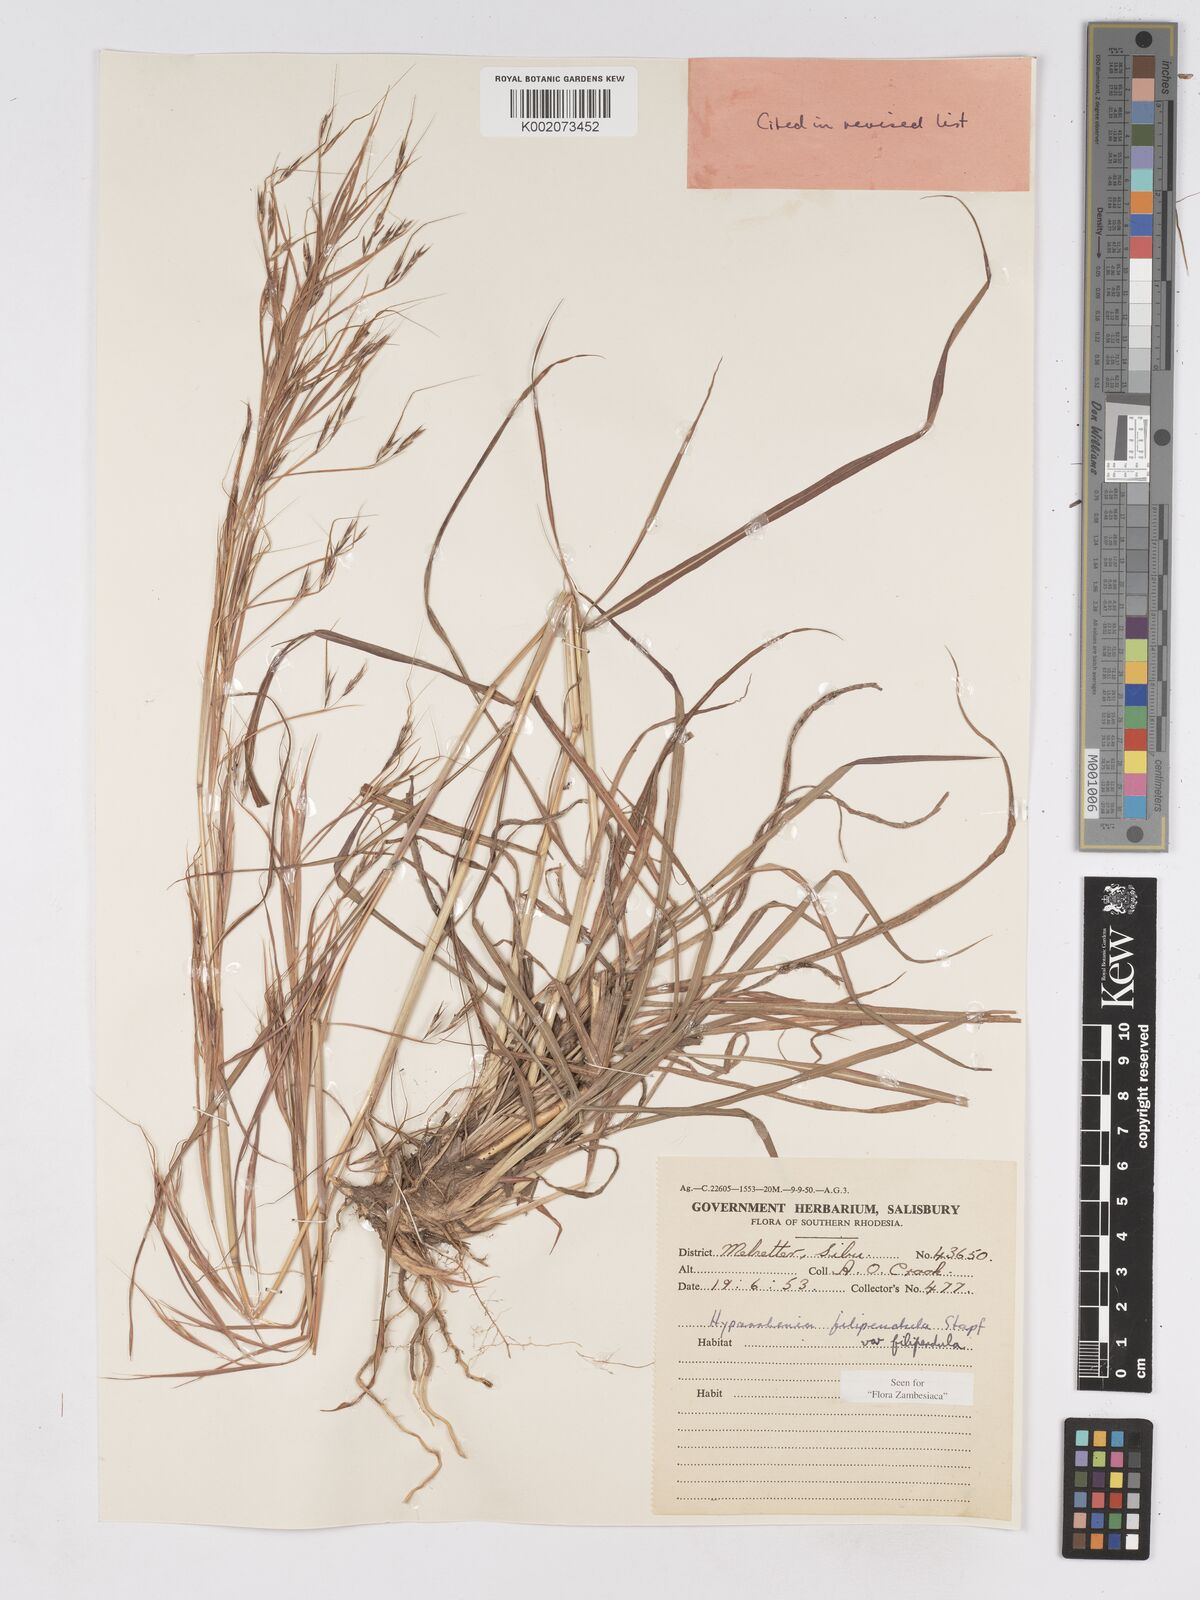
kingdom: Plantae
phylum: Tracheophyta
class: Liliopsida
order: Poales
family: Poaceae
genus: Hyparrhenia
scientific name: Hyparrhenia filipendula
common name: Tambookie grass
